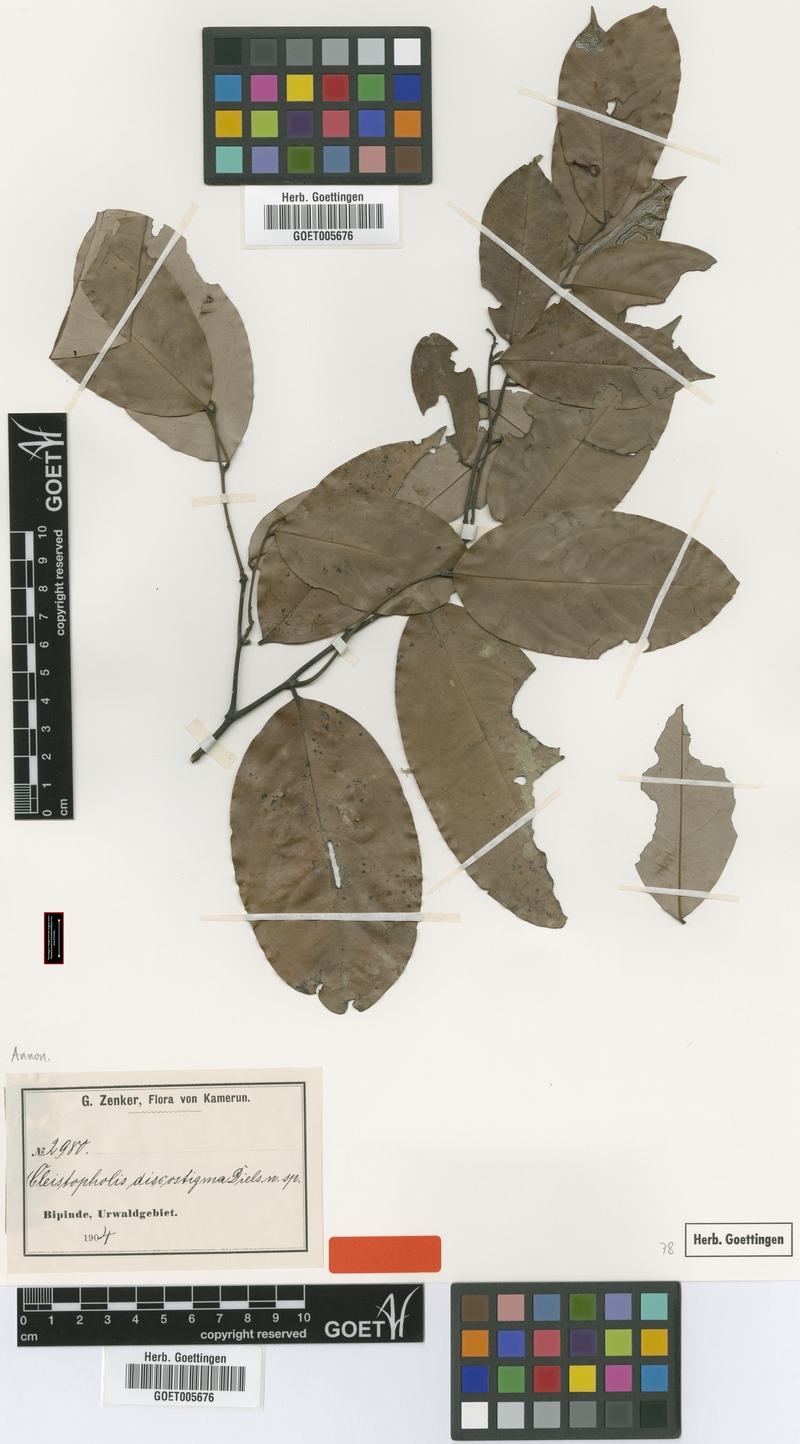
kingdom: Plantae
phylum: Tracheophyta
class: Magnoliopsida
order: Magnoliales
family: Annonaceae
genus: Friesodielsia
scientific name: Friesodielsia discostigma
